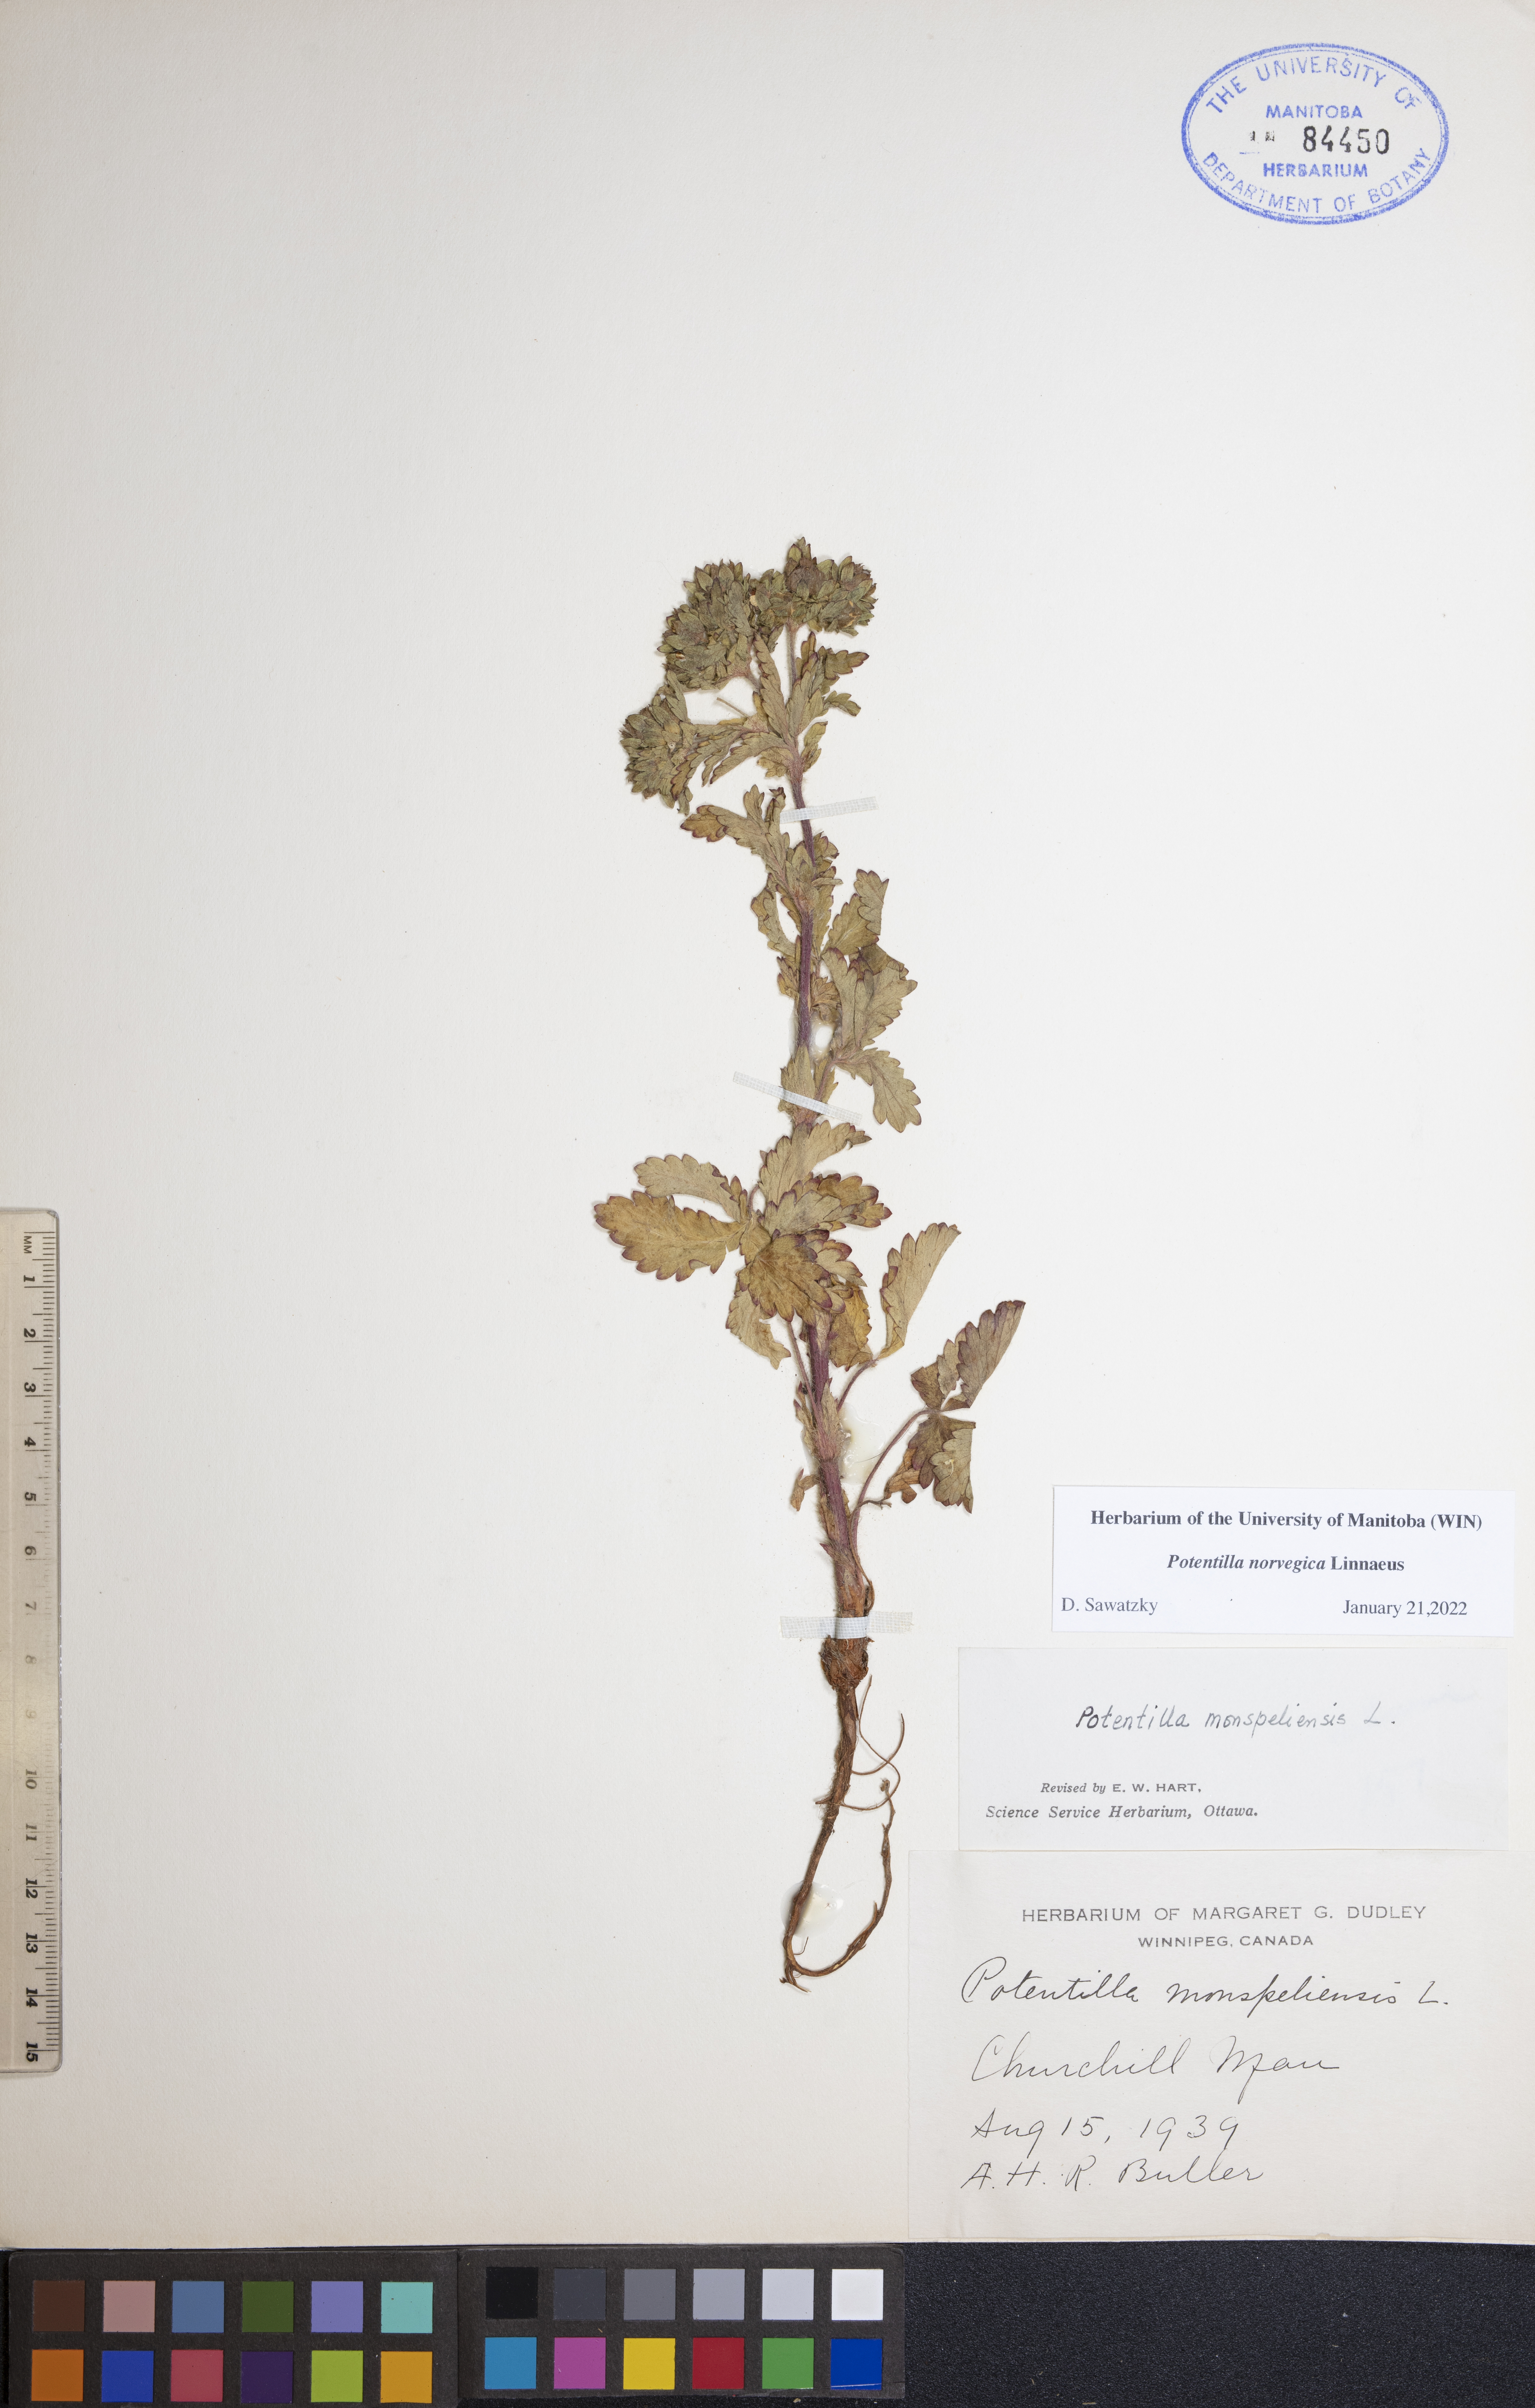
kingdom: Plantae
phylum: Tracheophyta
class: Magnoliopsida
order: Rosales
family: Rosaceae
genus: Potentilla
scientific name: Potentilla norvegica
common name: Ternate-leaved cinquefoil
